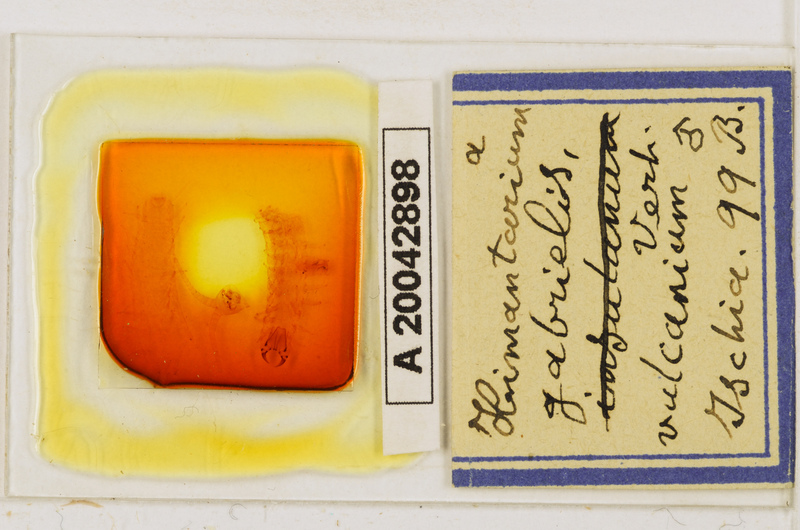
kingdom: Animalia
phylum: Arthropoda
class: Chilopoda
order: Geophilomorpha
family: Himantariidae
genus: Himantarium
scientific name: Himantarium gabrielis
